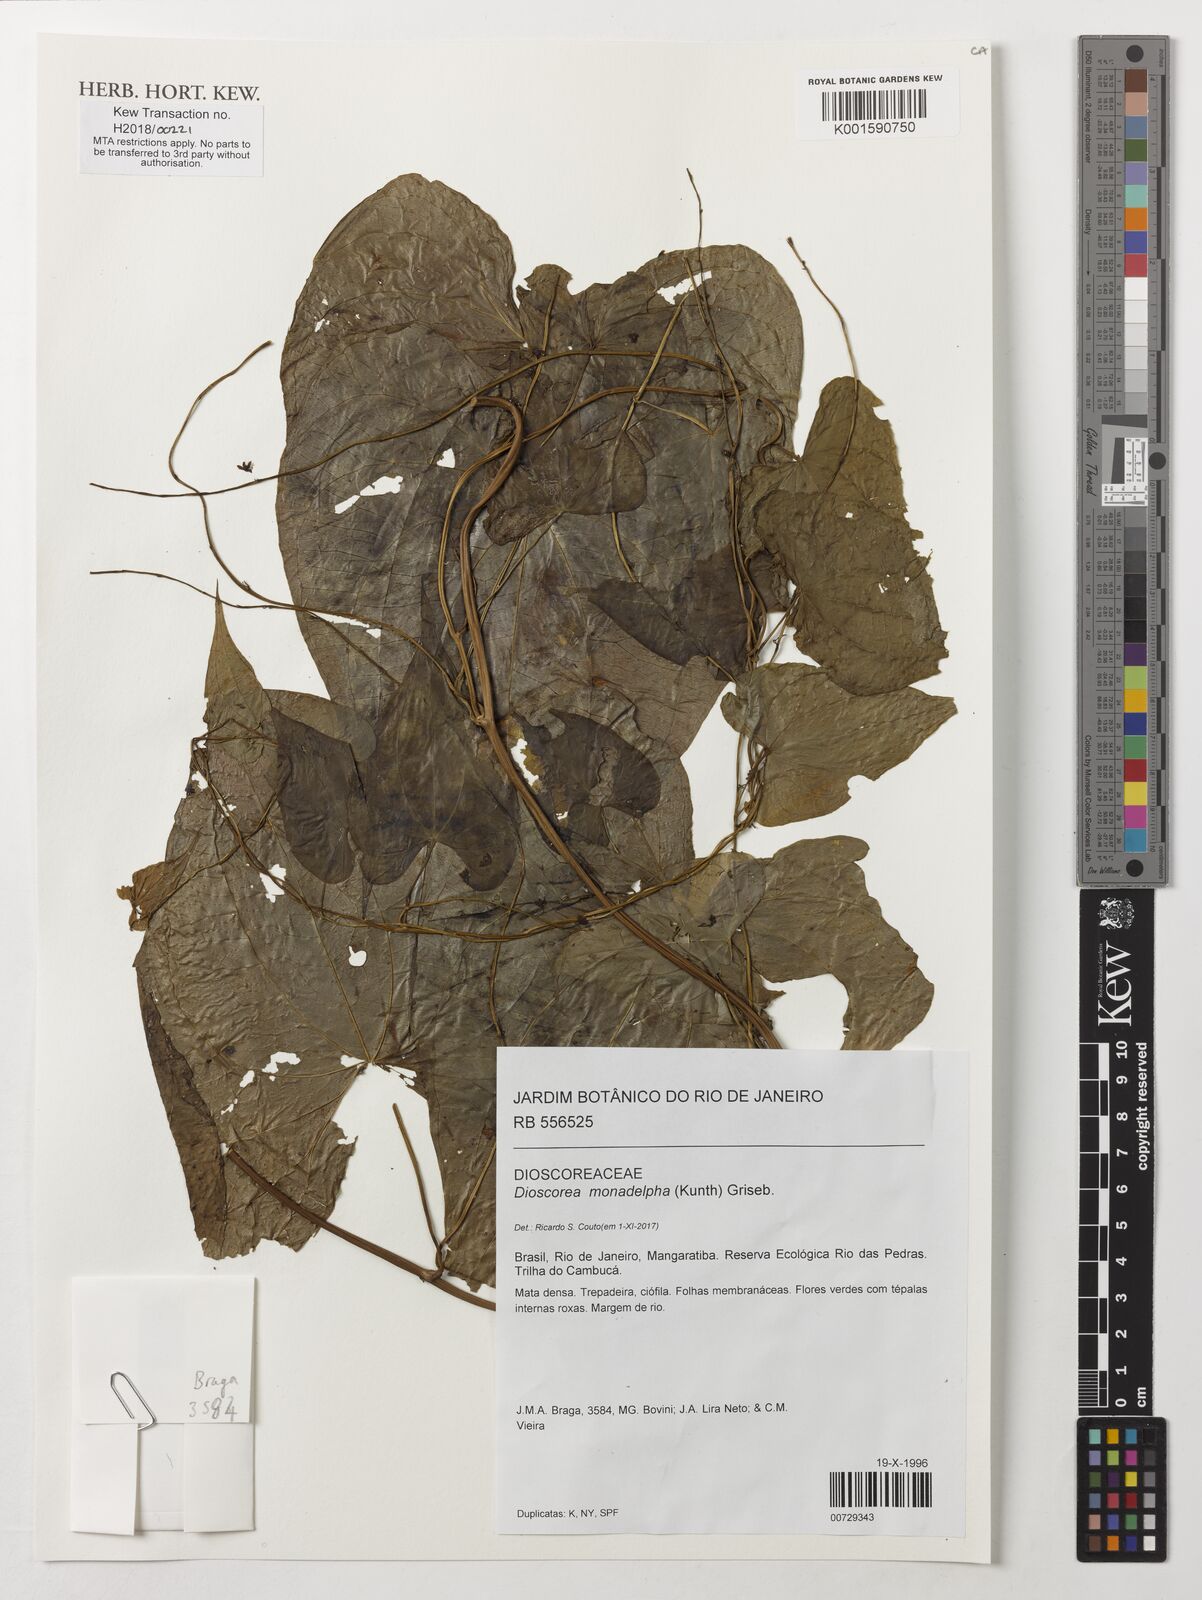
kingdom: Plantae
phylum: Tracheophyta
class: Liliopsida
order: Dioscoreales
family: Dioscoreaceae
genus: Dioscorea
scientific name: Dioscorea monadelpha
